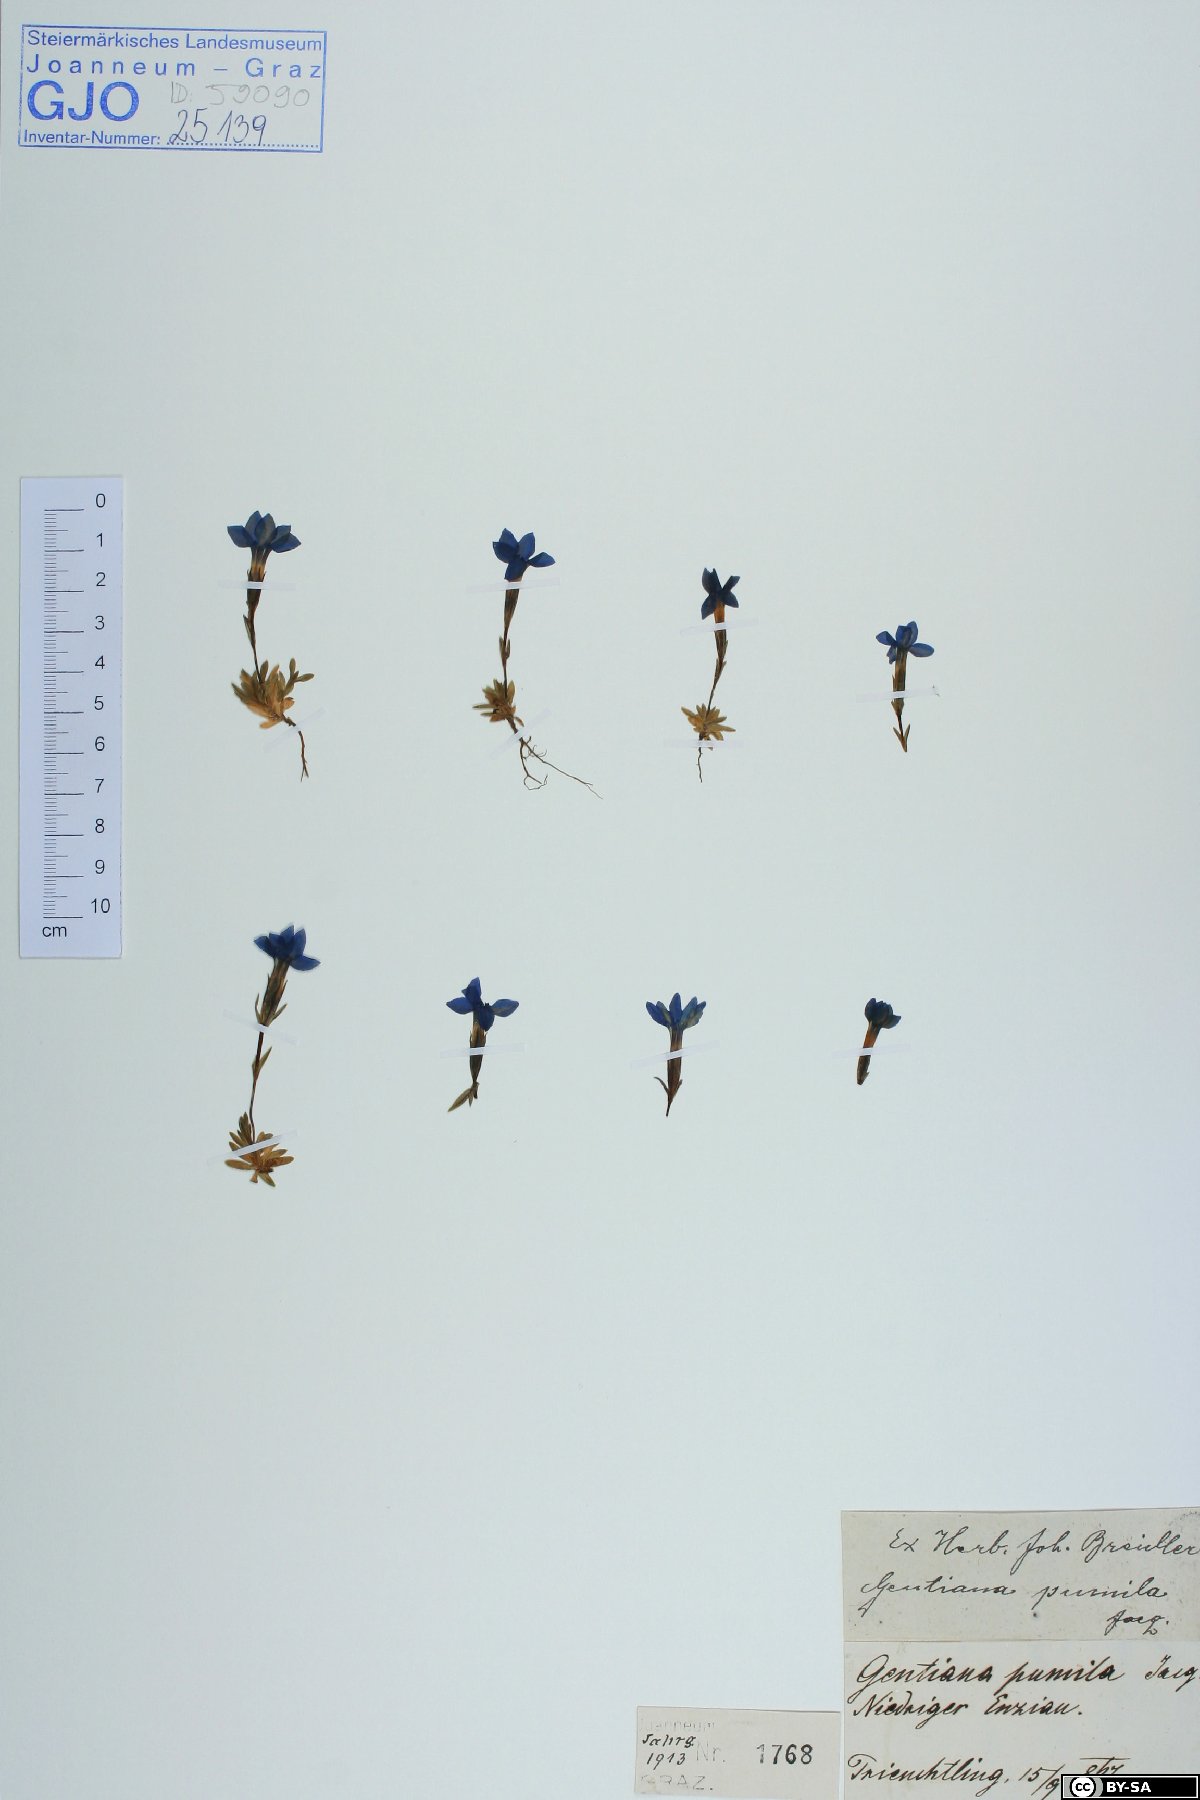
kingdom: Plantae
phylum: Tracheophyta
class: Magnoliopsida
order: Gentianales
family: Gentianaceae
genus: Gentiana
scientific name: Gentiana pumila
